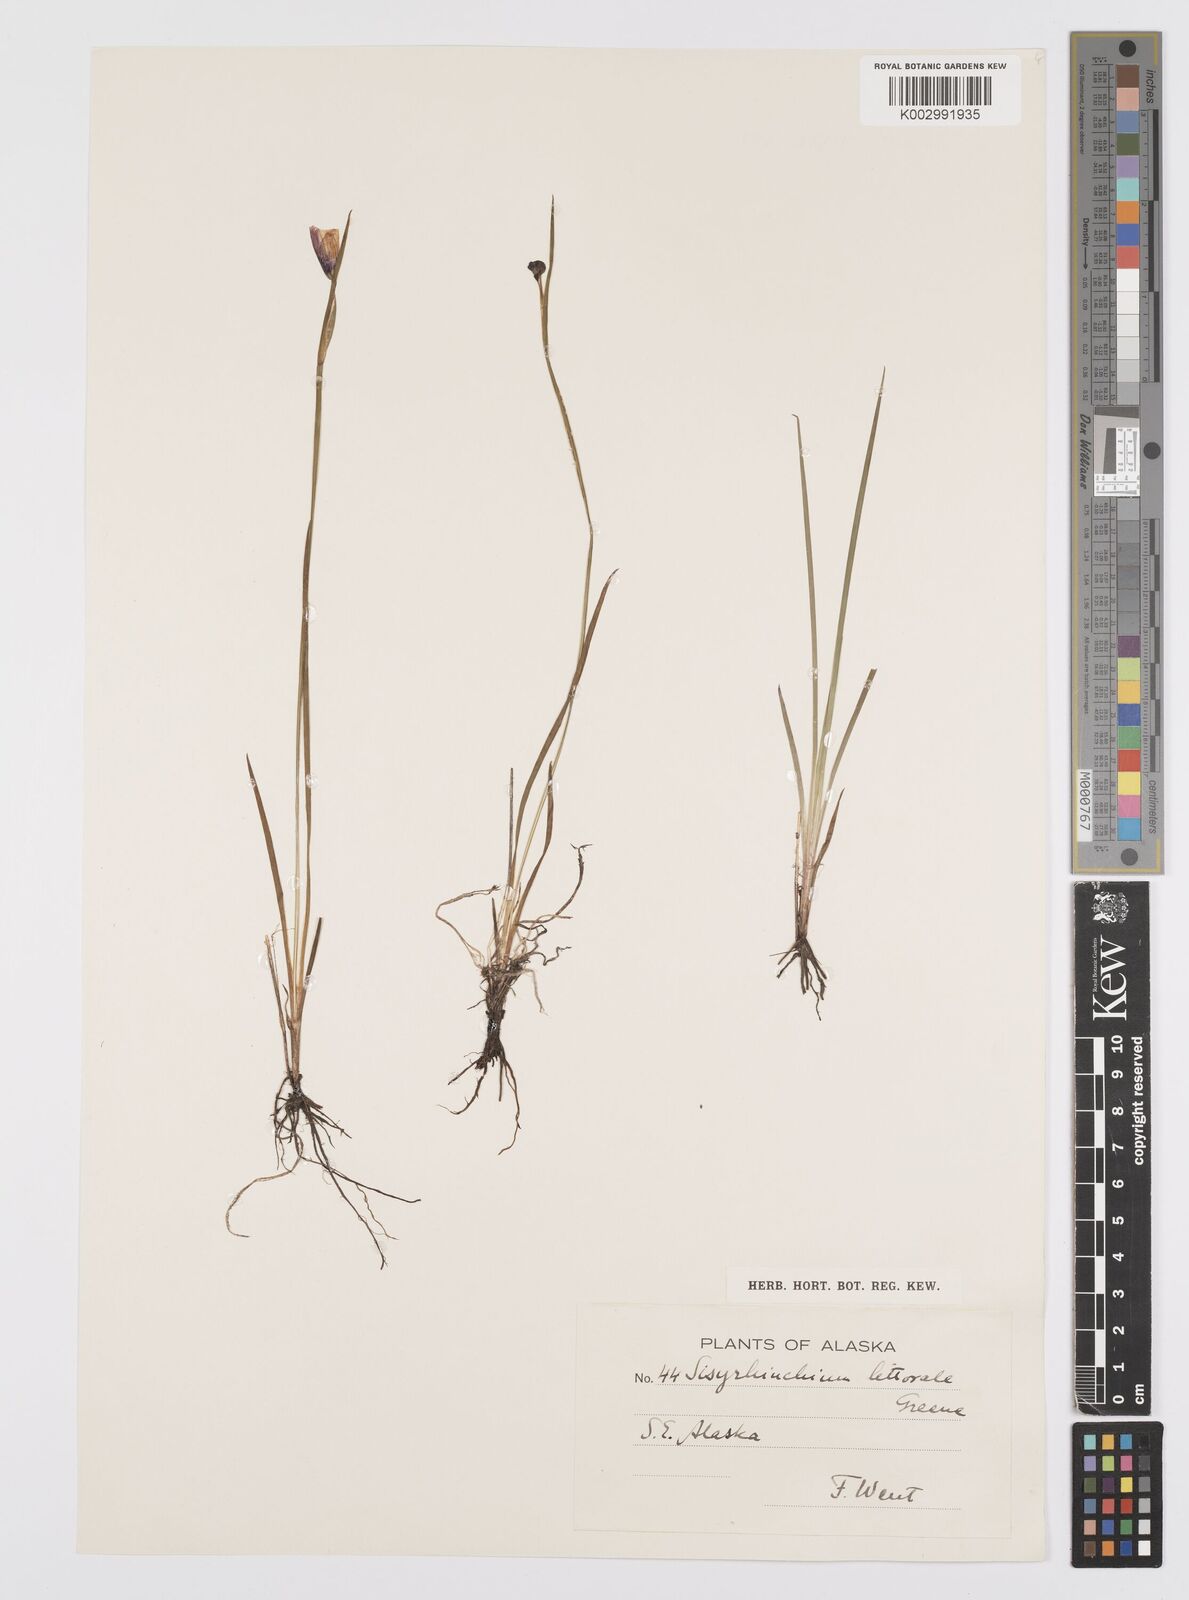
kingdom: Plantae
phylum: Tracheophyta
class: Liliopsida
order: Asparagales
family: Iridaceae
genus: Sisyrinchium
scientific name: Sisyrinchium littorale
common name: Alaska blue-eyed-grass
